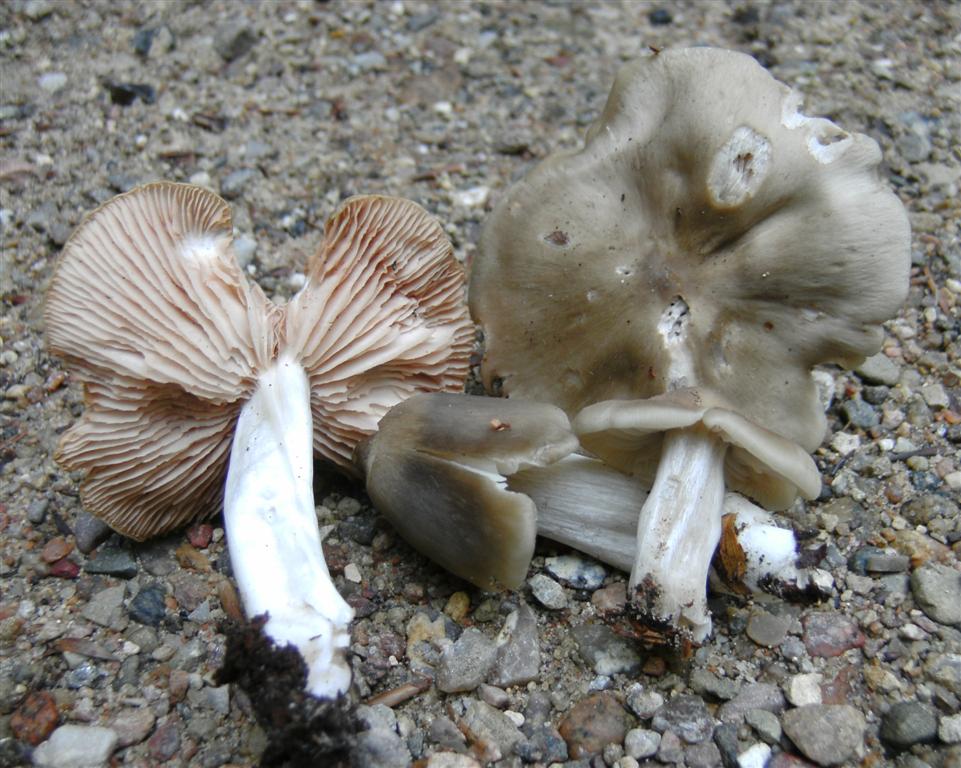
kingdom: Fungi
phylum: Basidiomycota
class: Agaricomycetes
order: Agaricales
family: Entolomataceae
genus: Entoloma
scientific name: Entoloma sordidulum
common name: smudsig rødblad
